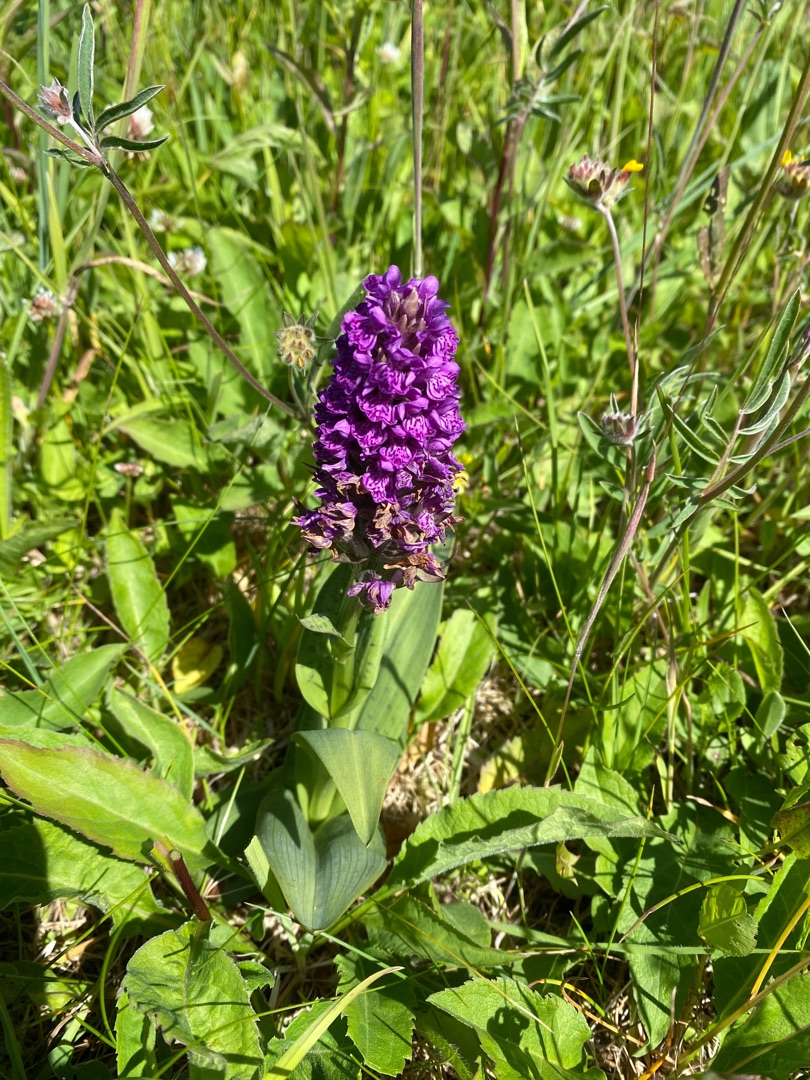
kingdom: Plantae
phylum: Tracheophyta
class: Liliopsida
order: Asparagales
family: Orchidaceae
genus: Dactylorhiza
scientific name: Dactylorhiza majalis
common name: Vendsyssel-gøgeurt
